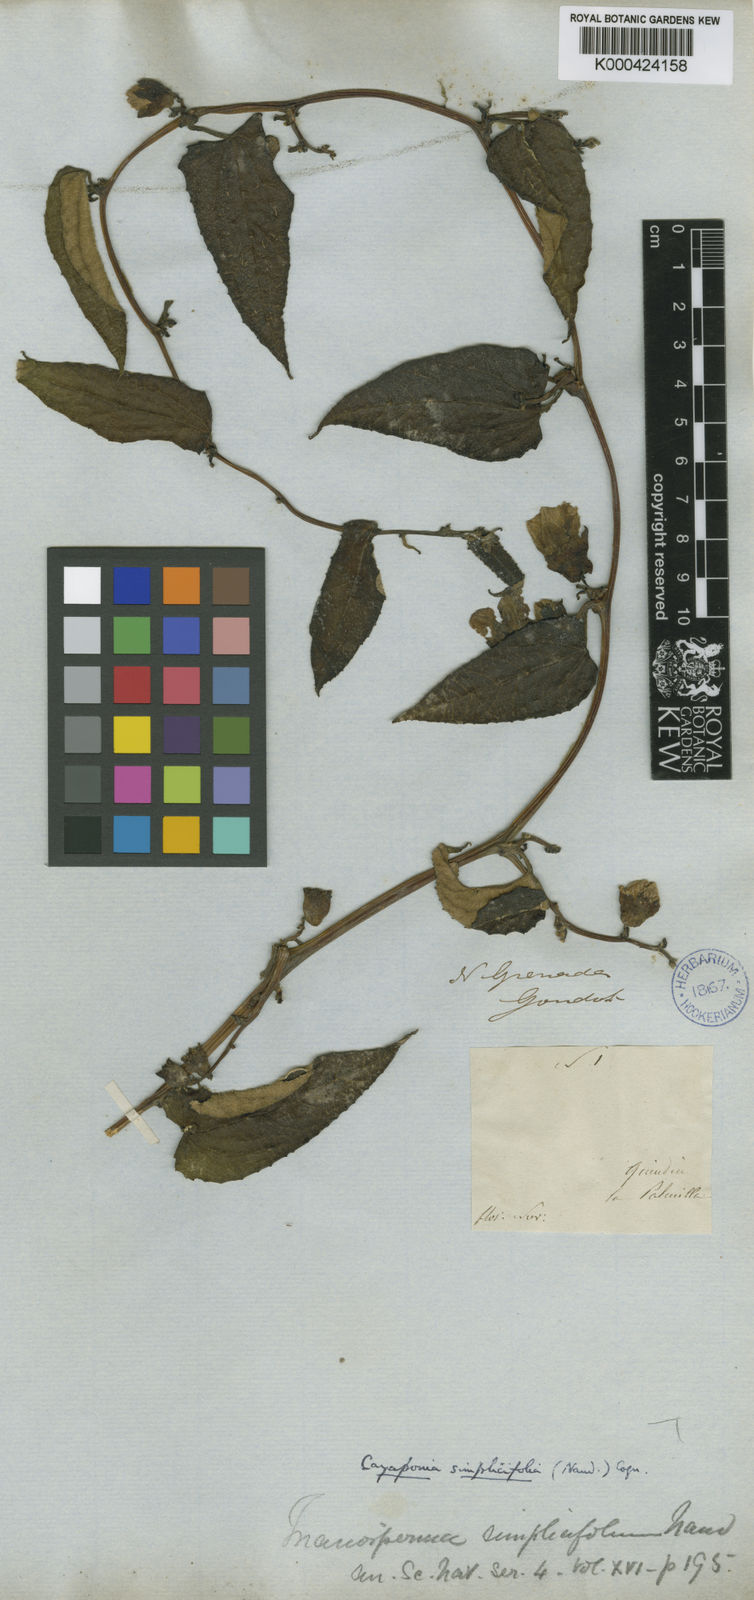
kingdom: Plantae
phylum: Tracheophyta
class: Magnoliopsida
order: Cucurbitales
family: Cucurbitaceae
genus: Cayaponia
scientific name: Cayaponia simplicifolia
